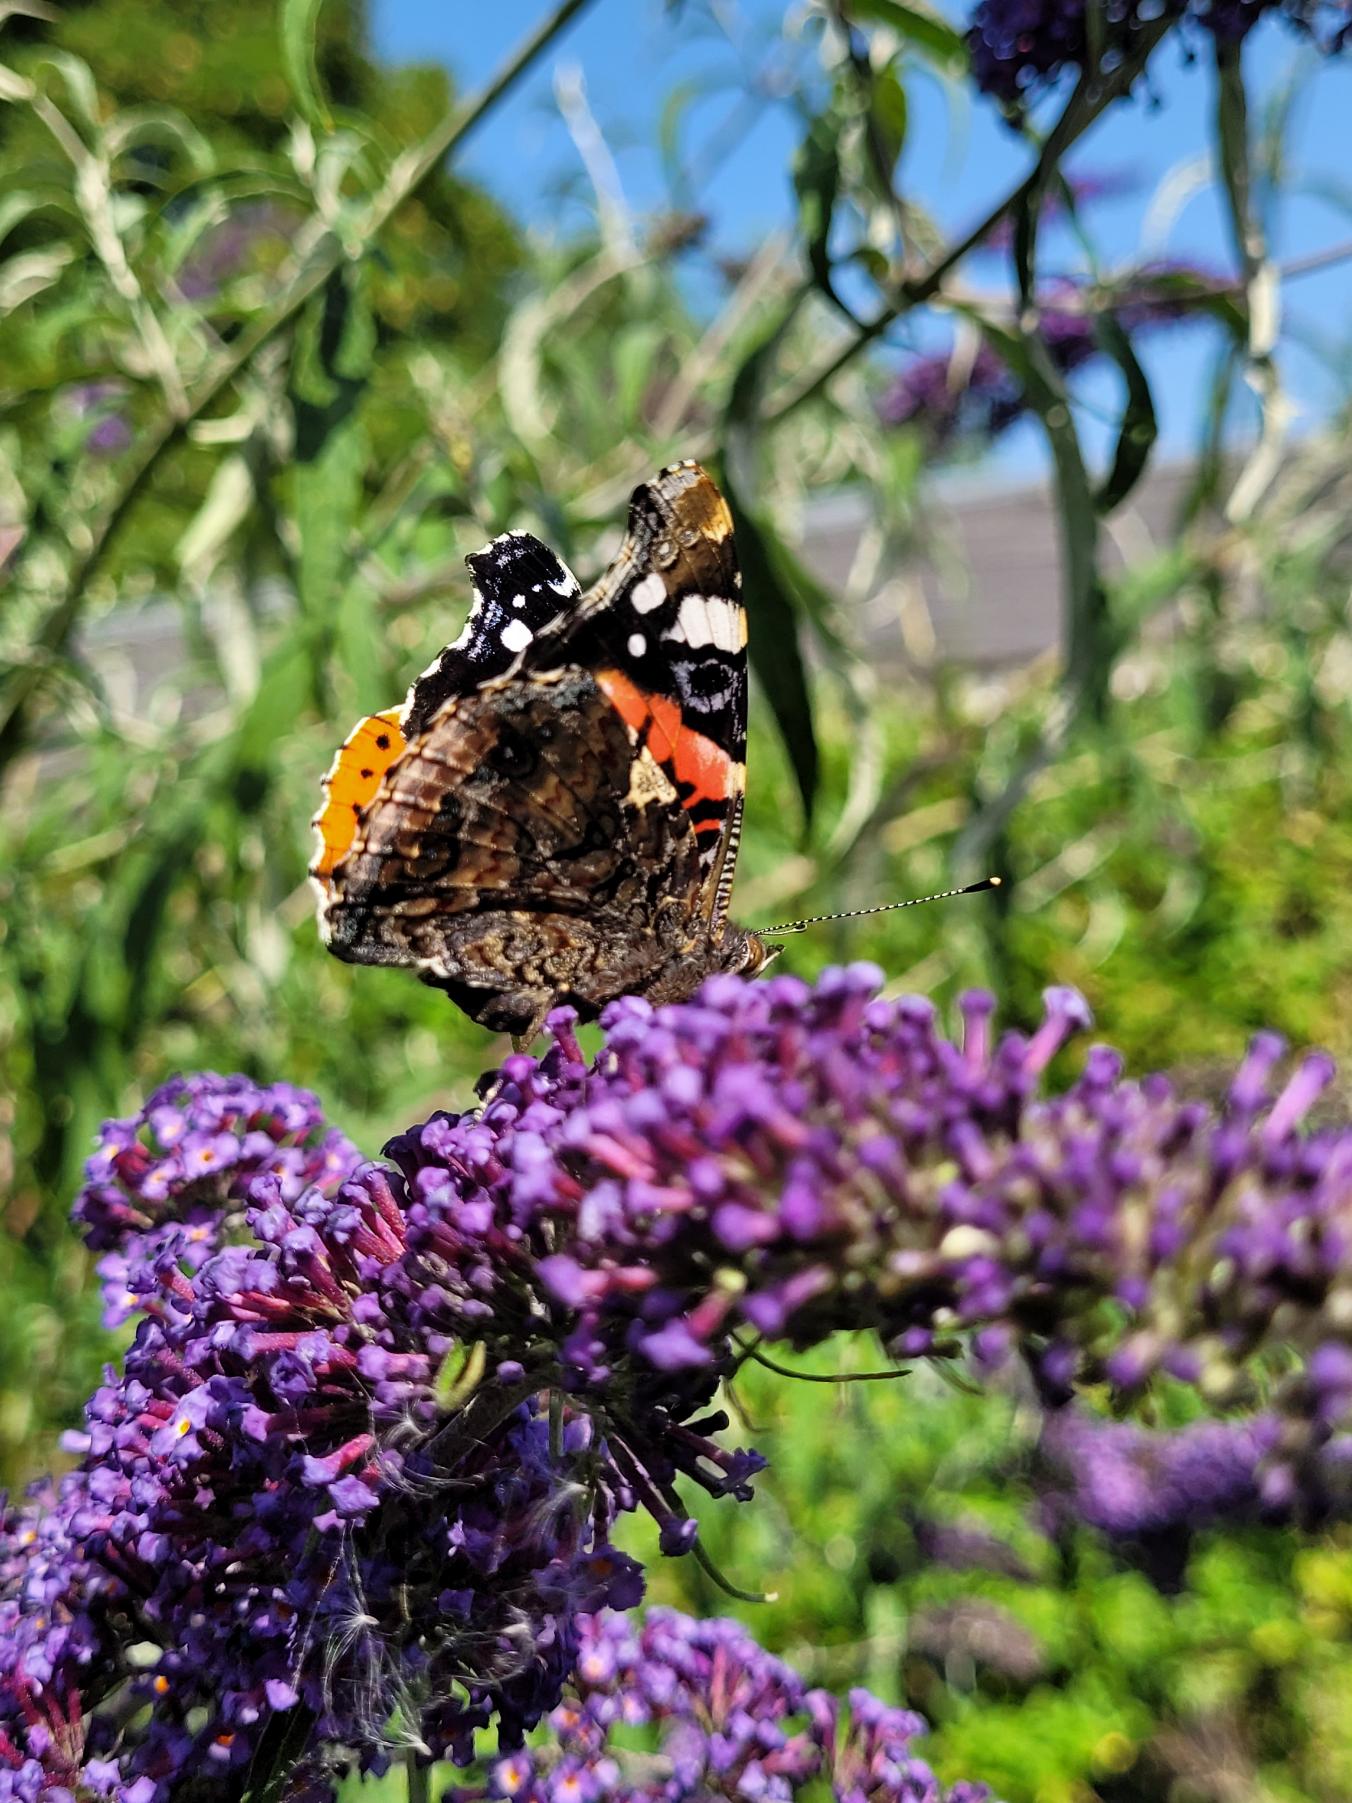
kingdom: Animalia
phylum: Arthropoda
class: Insecta
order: Lepidoptera
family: Nymphalidae
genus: Vanessa
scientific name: Vanessa atalanta
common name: Admiral
